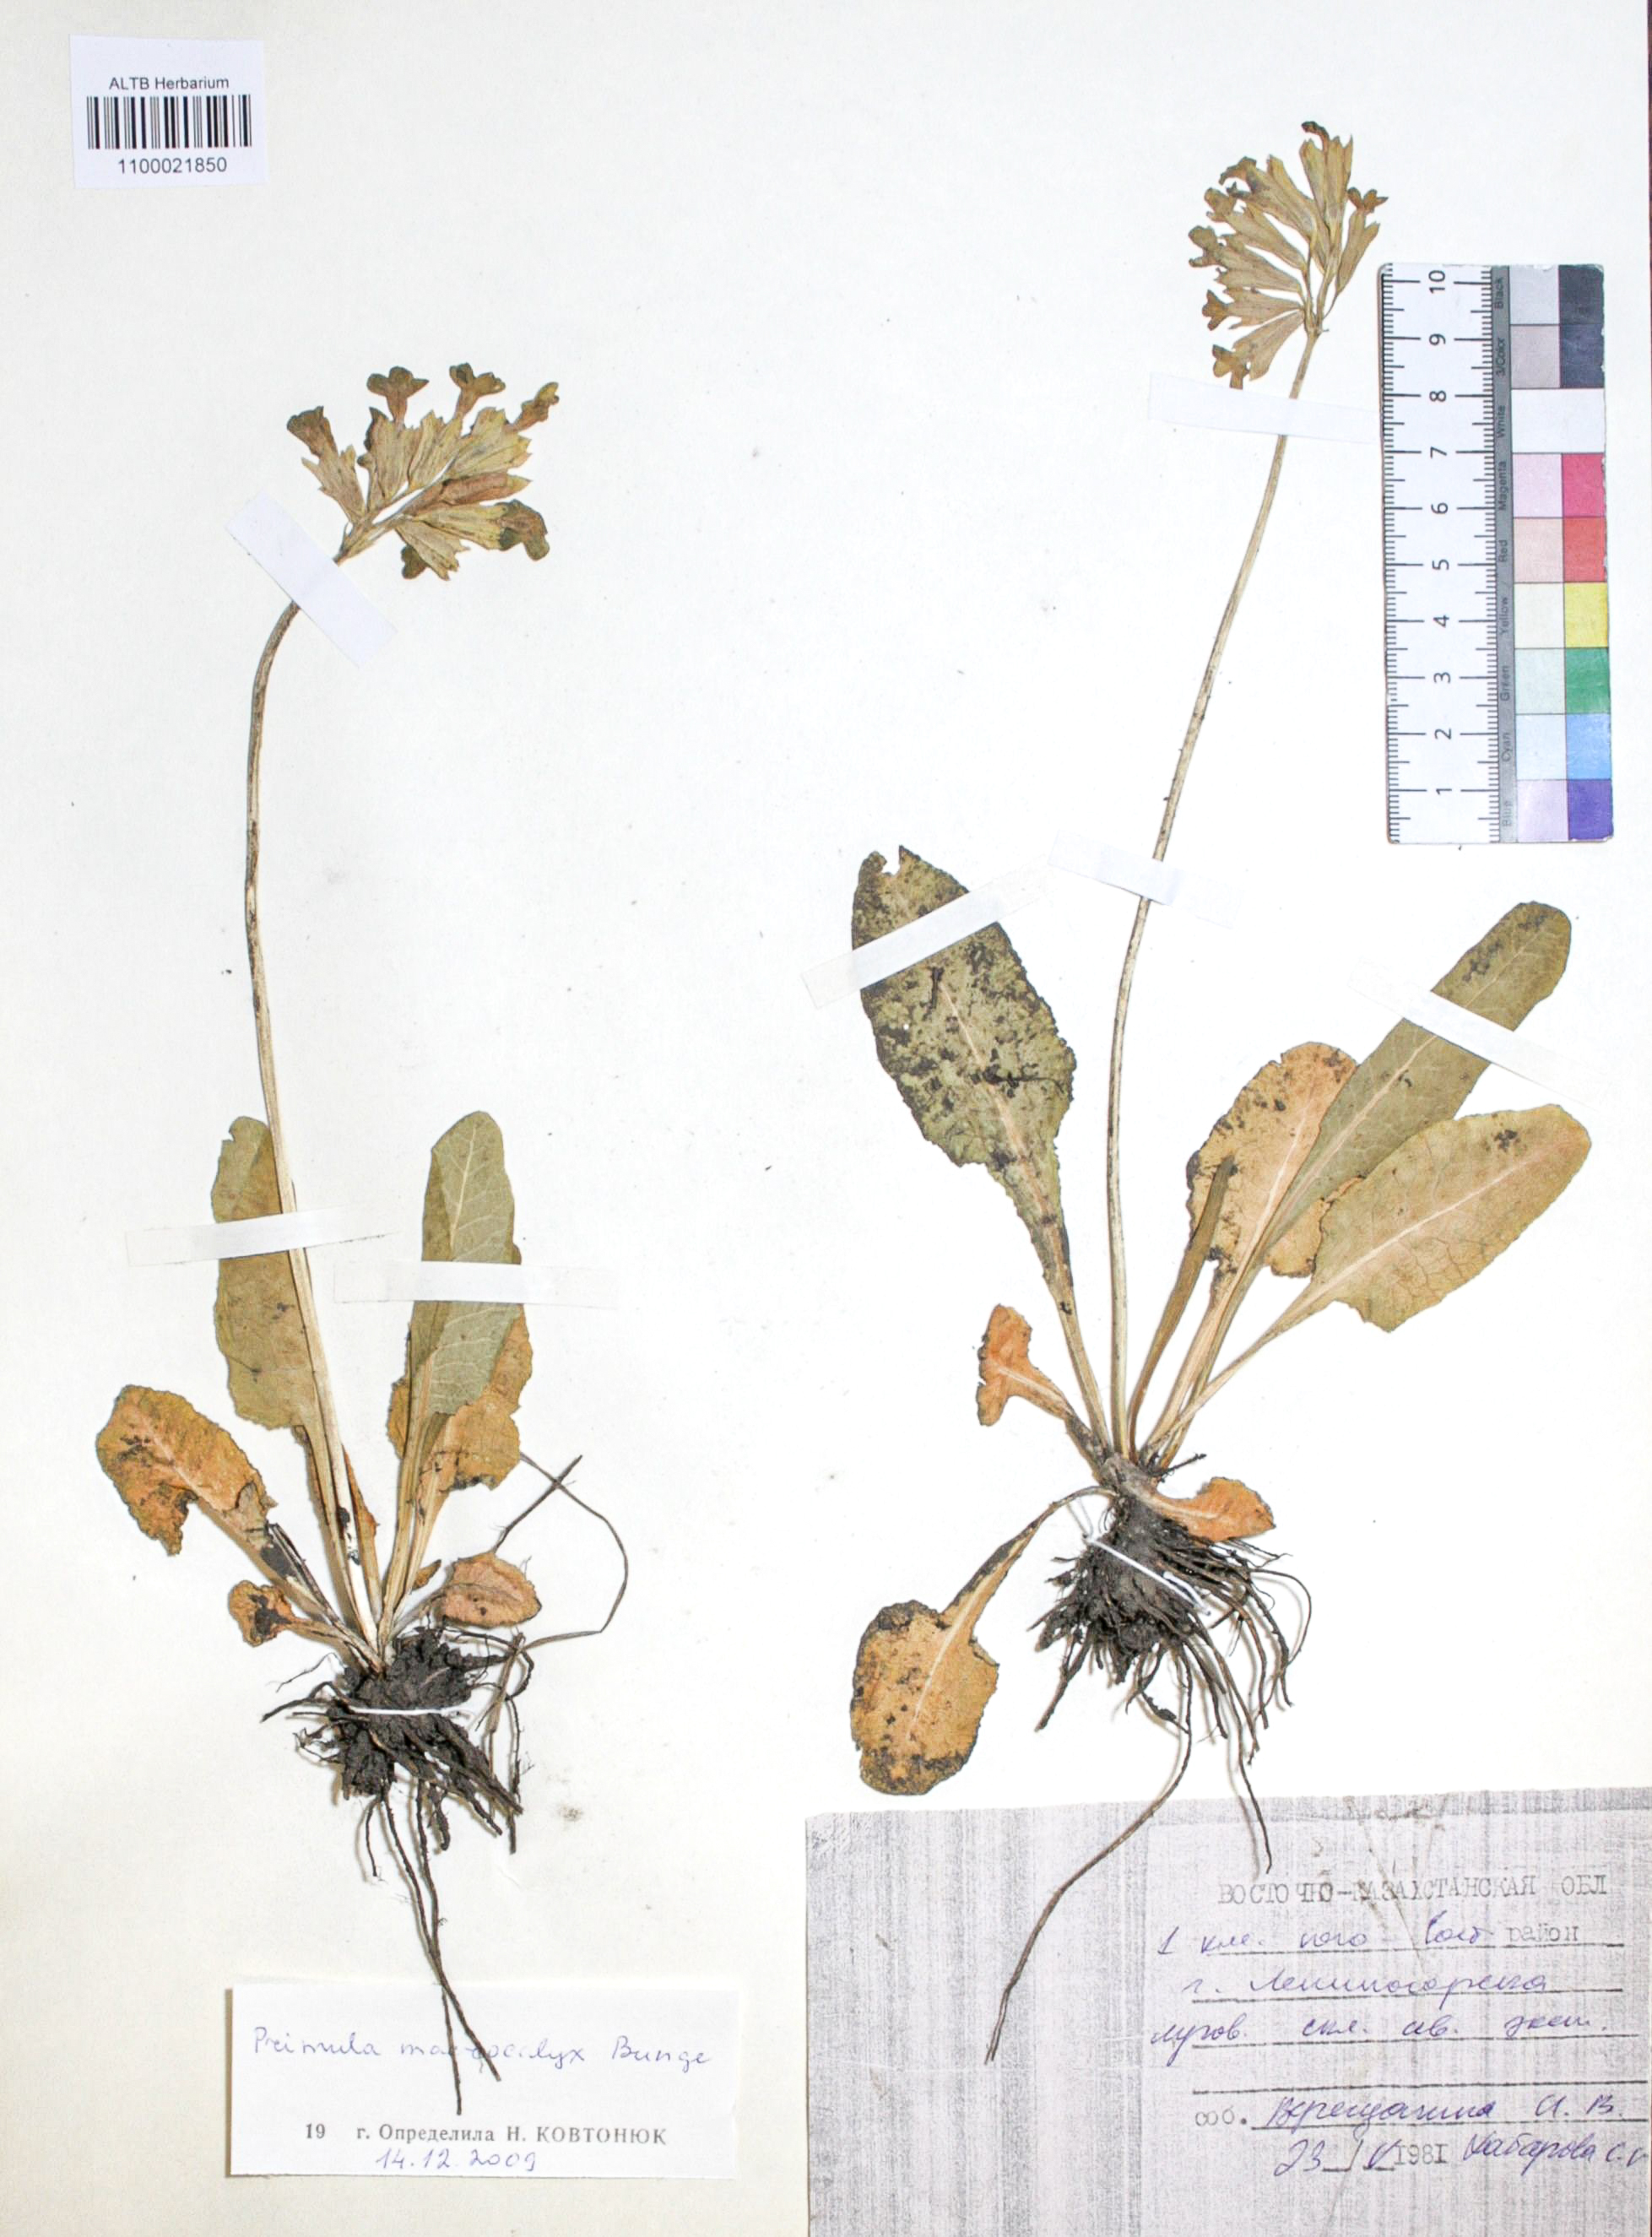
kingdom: Plantae
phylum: Tracheophyta
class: Magnoliopsida
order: Ericales
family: Primulaceae
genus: Primula
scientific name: Primula veris
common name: Cowslip
